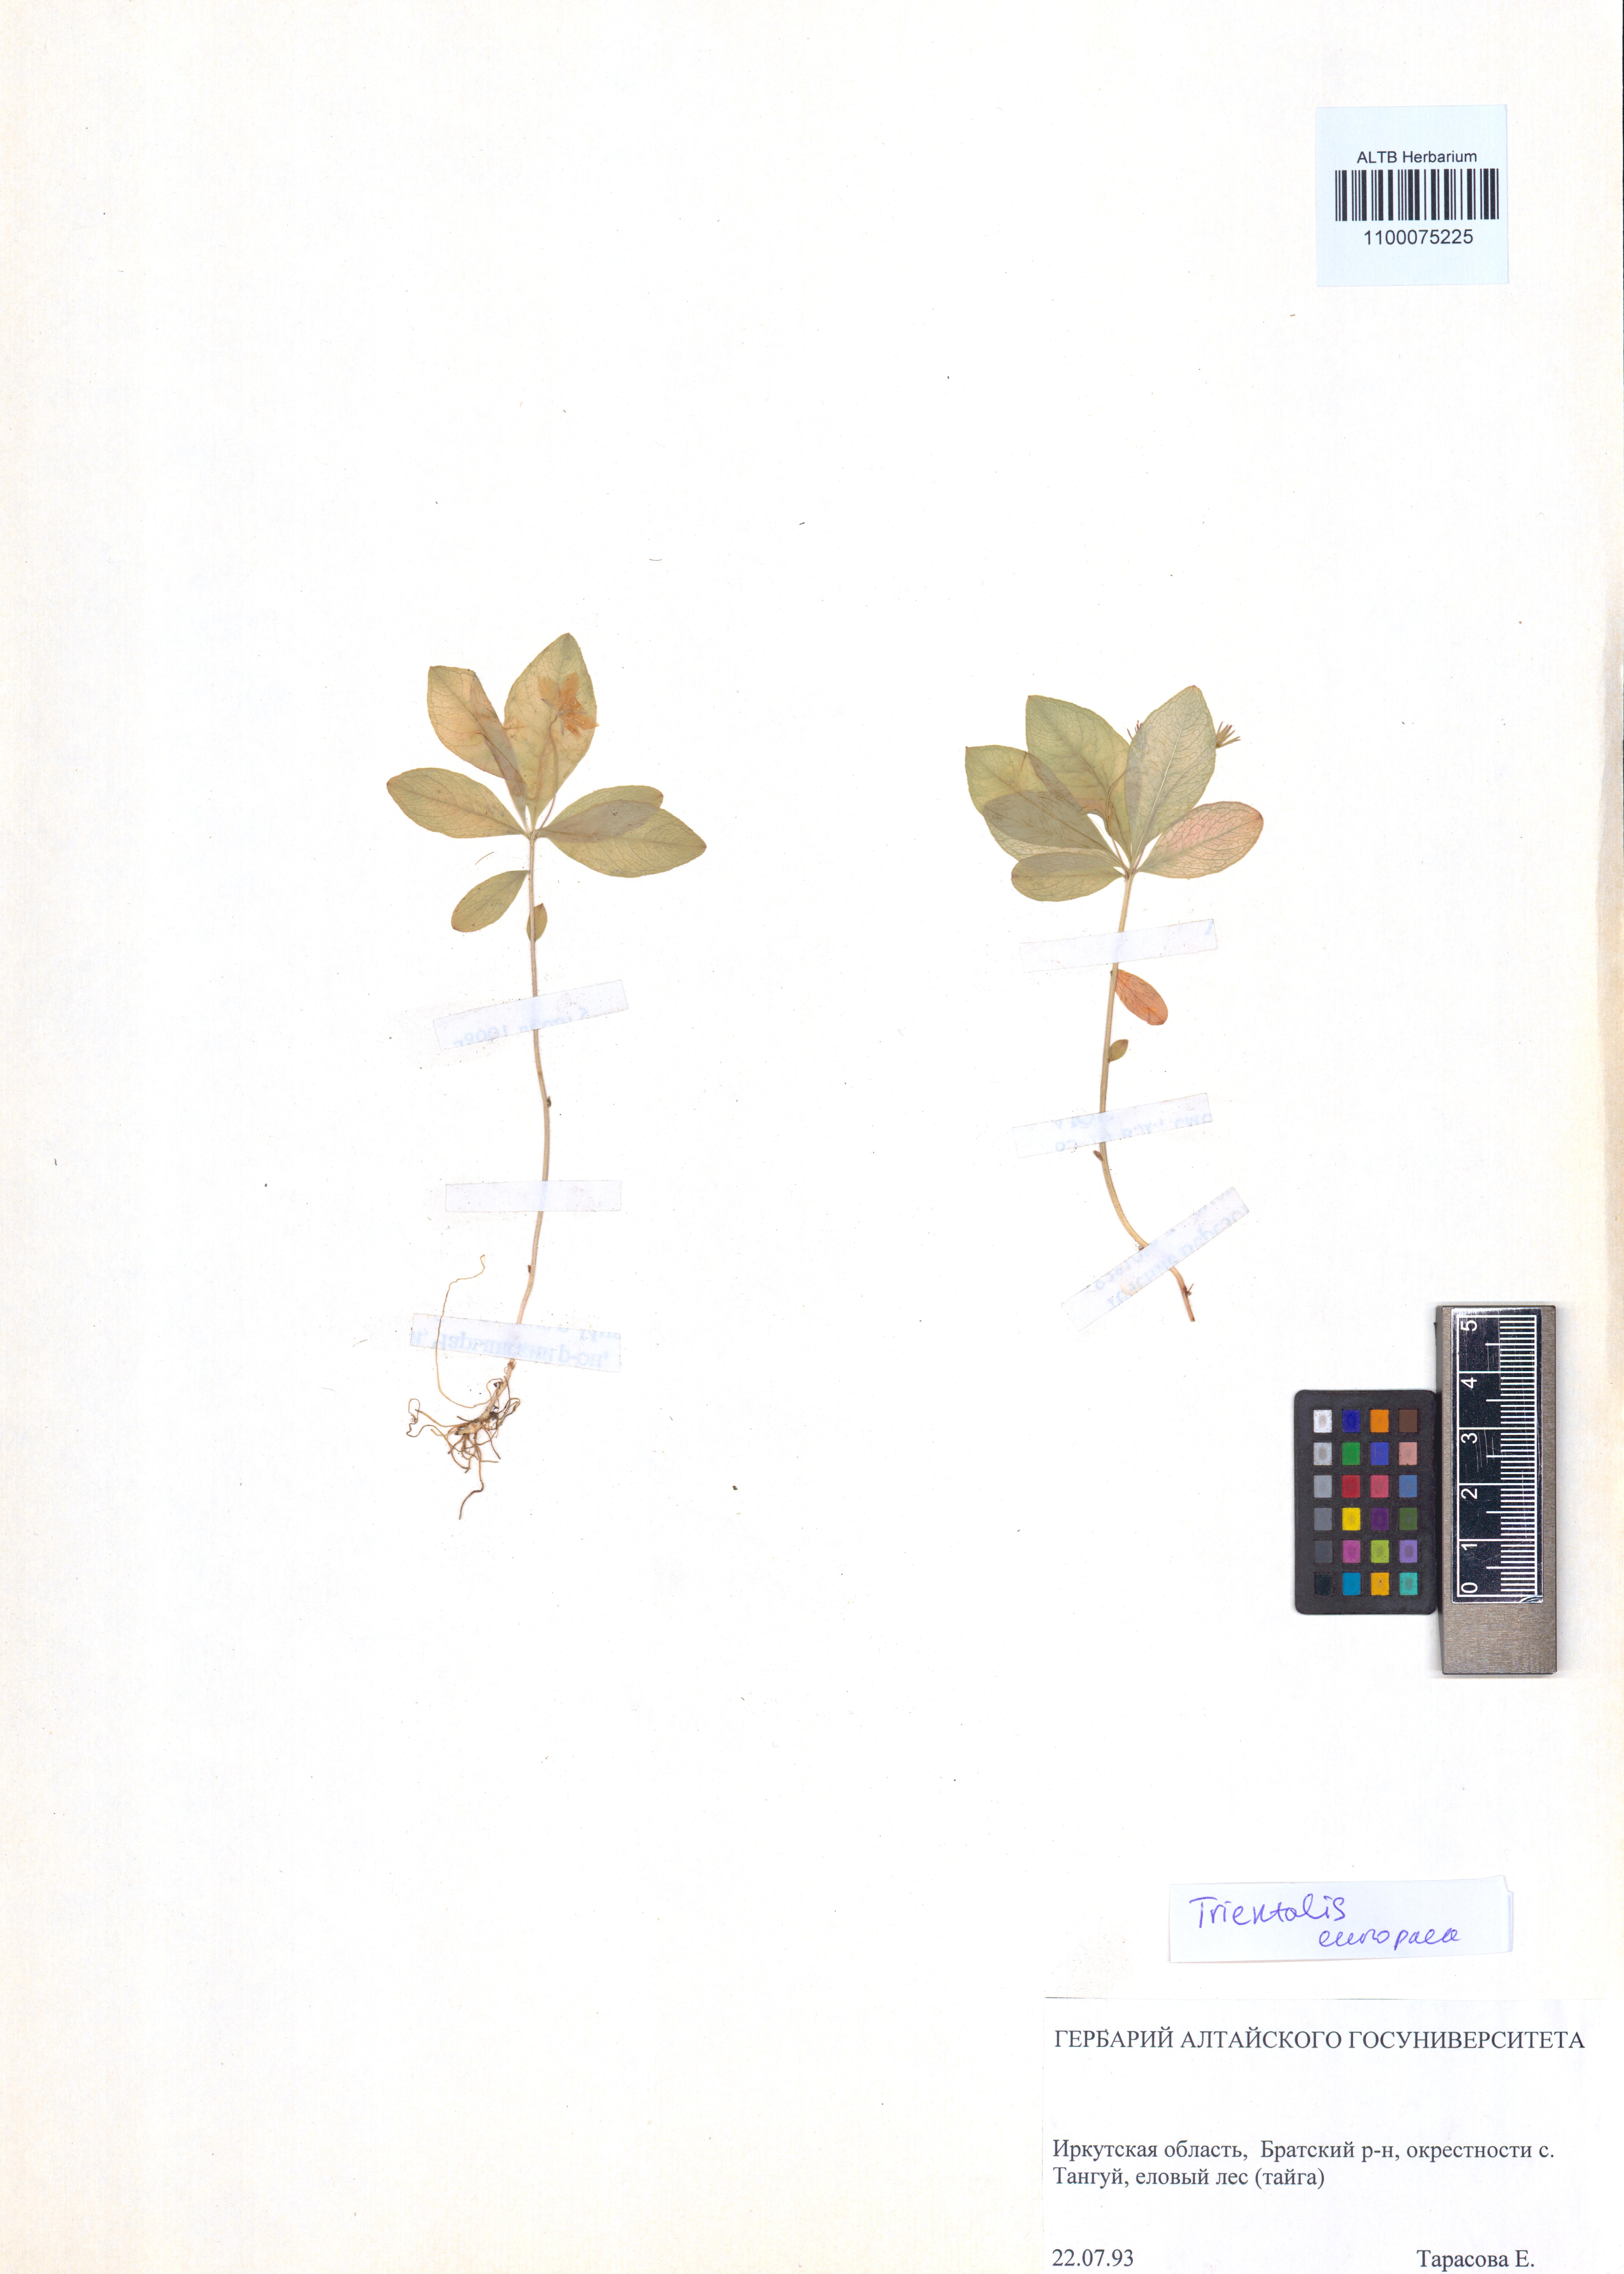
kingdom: Plantae
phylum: Tracheophyta
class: Magnoliopsida
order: Ericales
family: Primulaceae
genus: Lysimachia
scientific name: Lysimachia europaea
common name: Arctic starflower
